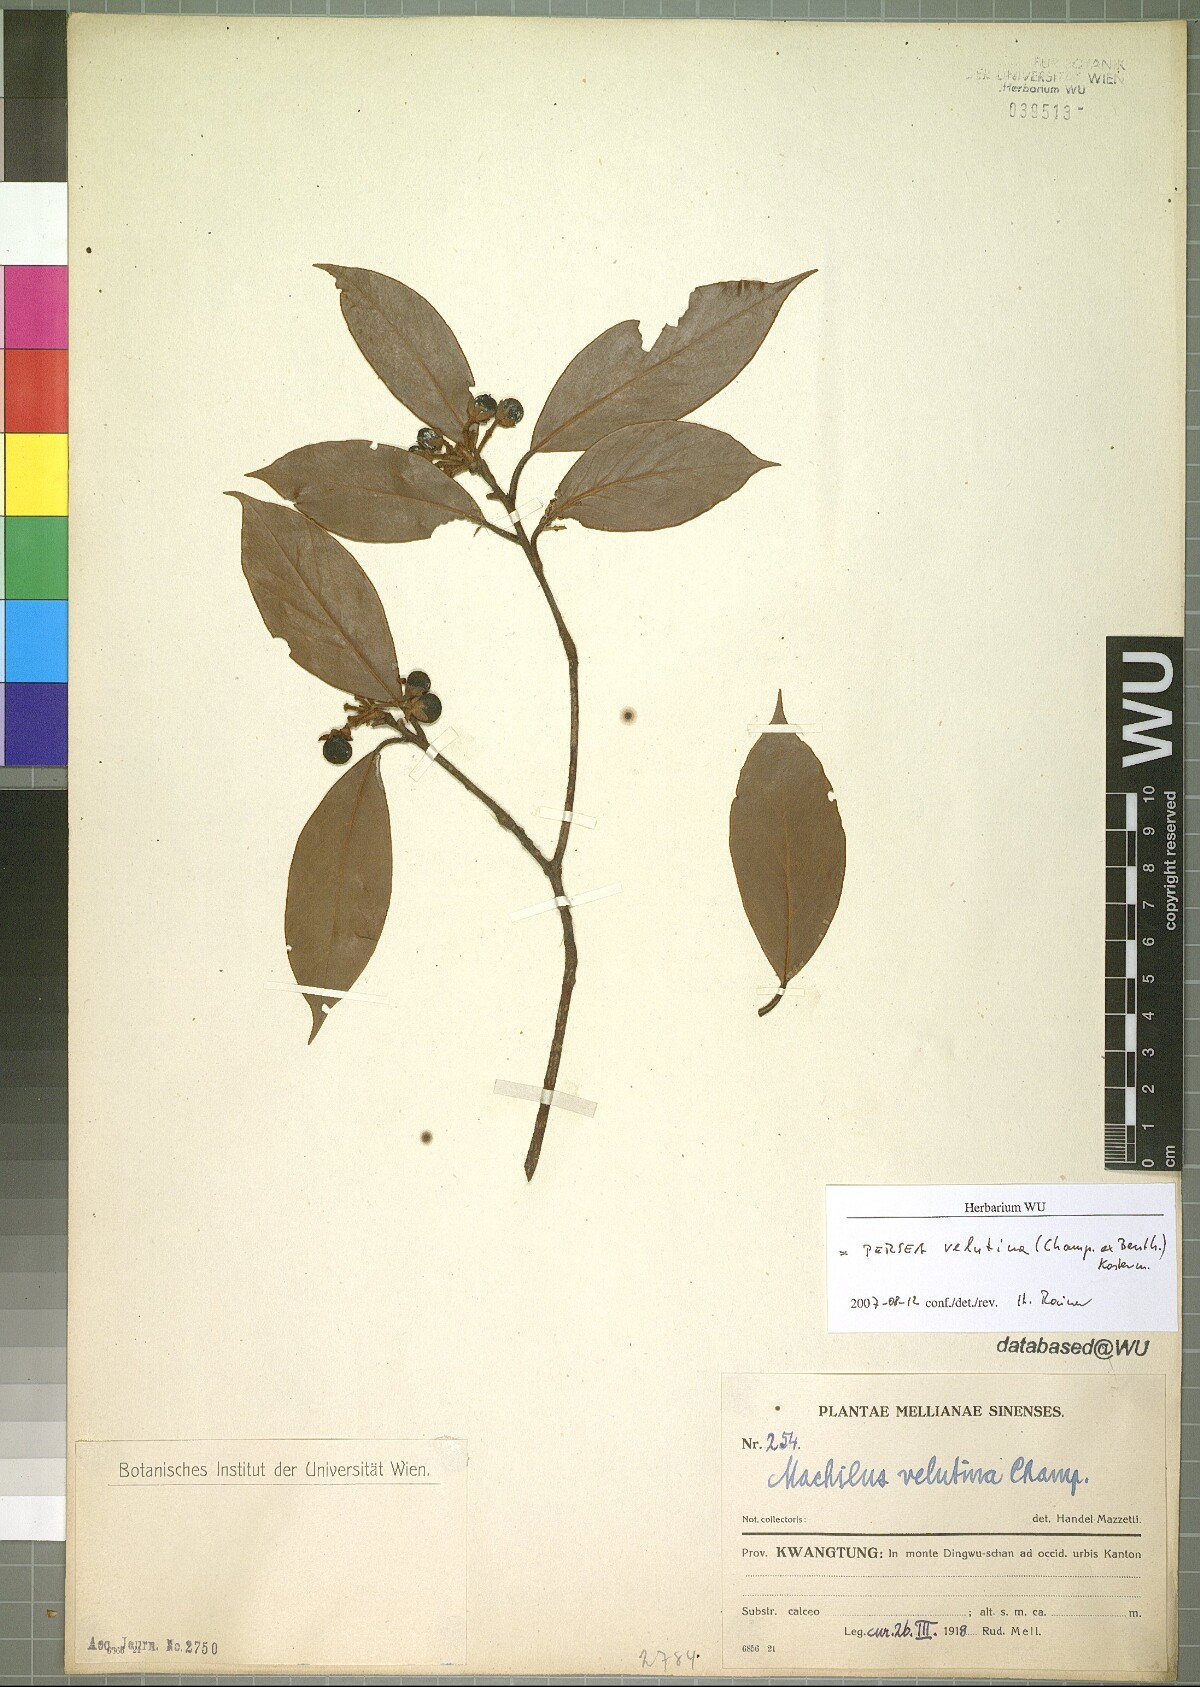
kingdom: Plantae
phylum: Tracheophyta
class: Magnoliopsida
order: Laurales
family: Lauraceae
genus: Machilus
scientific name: Machilus velutina
